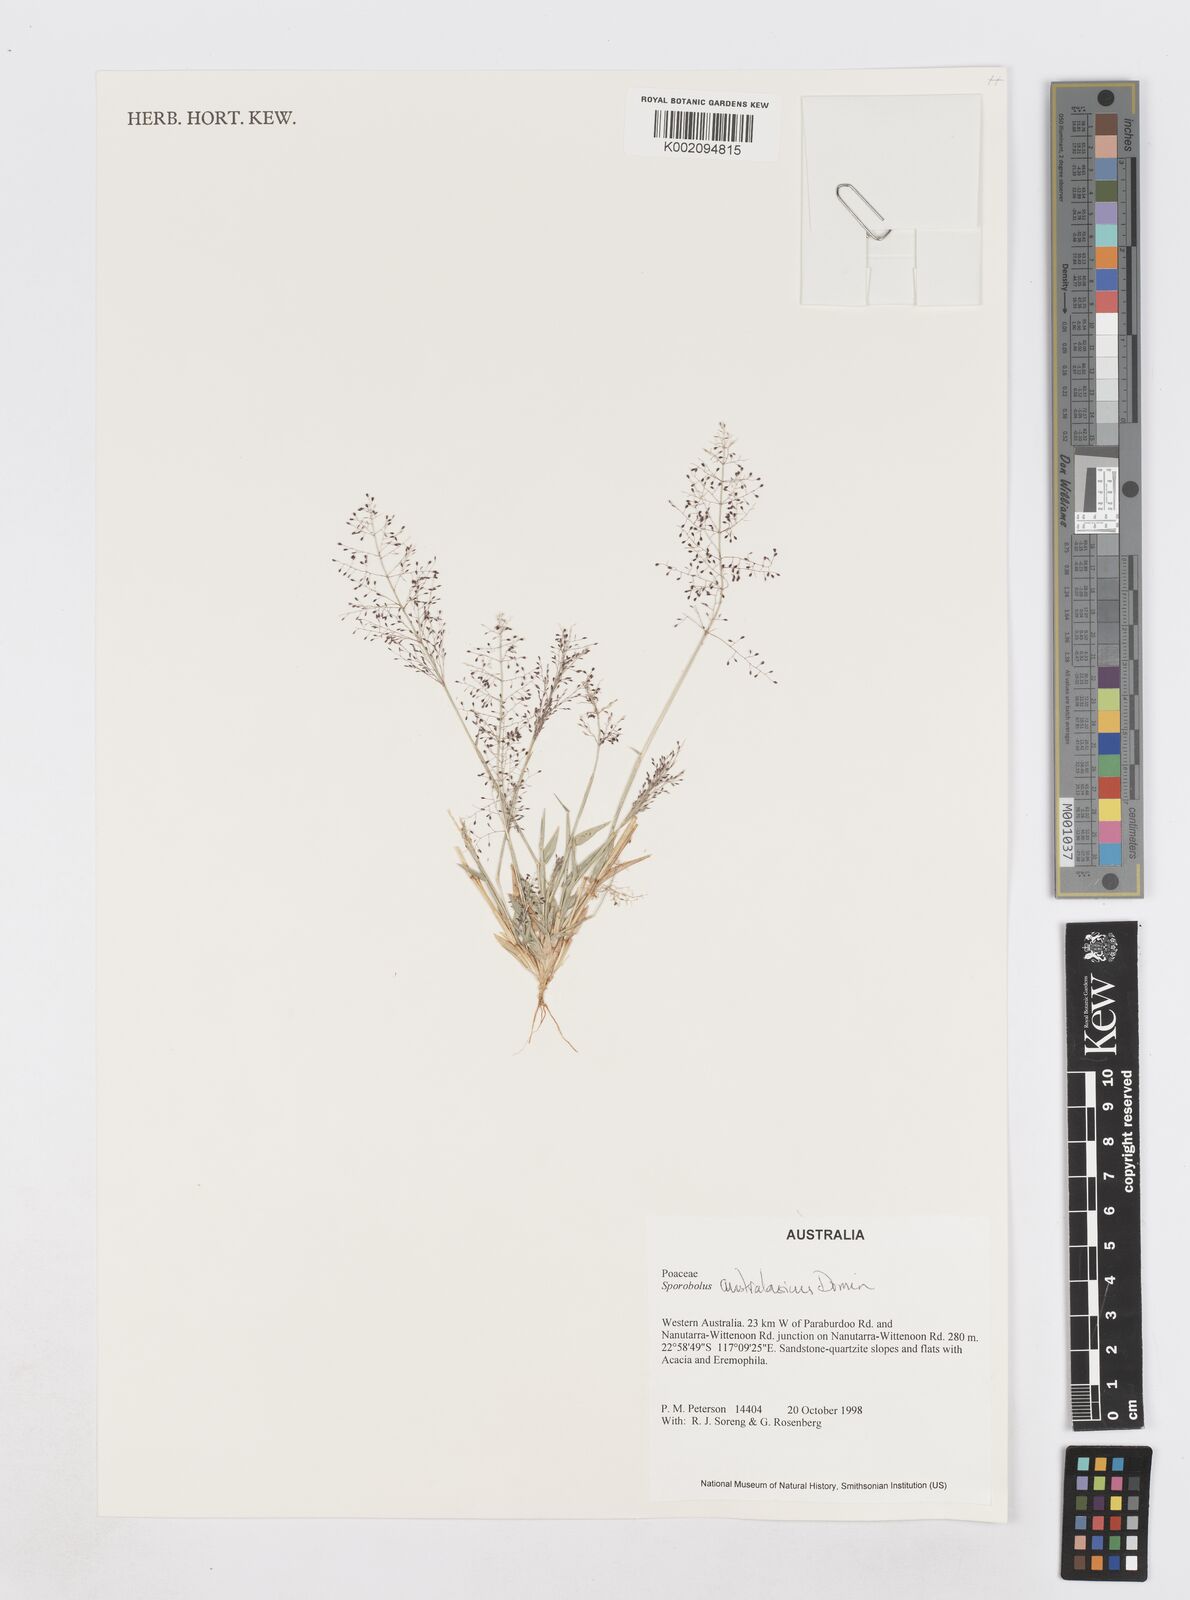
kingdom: Plantae
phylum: Tracheophyta
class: Liliopsida
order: Poales
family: Poaceae
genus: Sporobolus
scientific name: Sporobolus australasicus
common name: Australian dropseed
